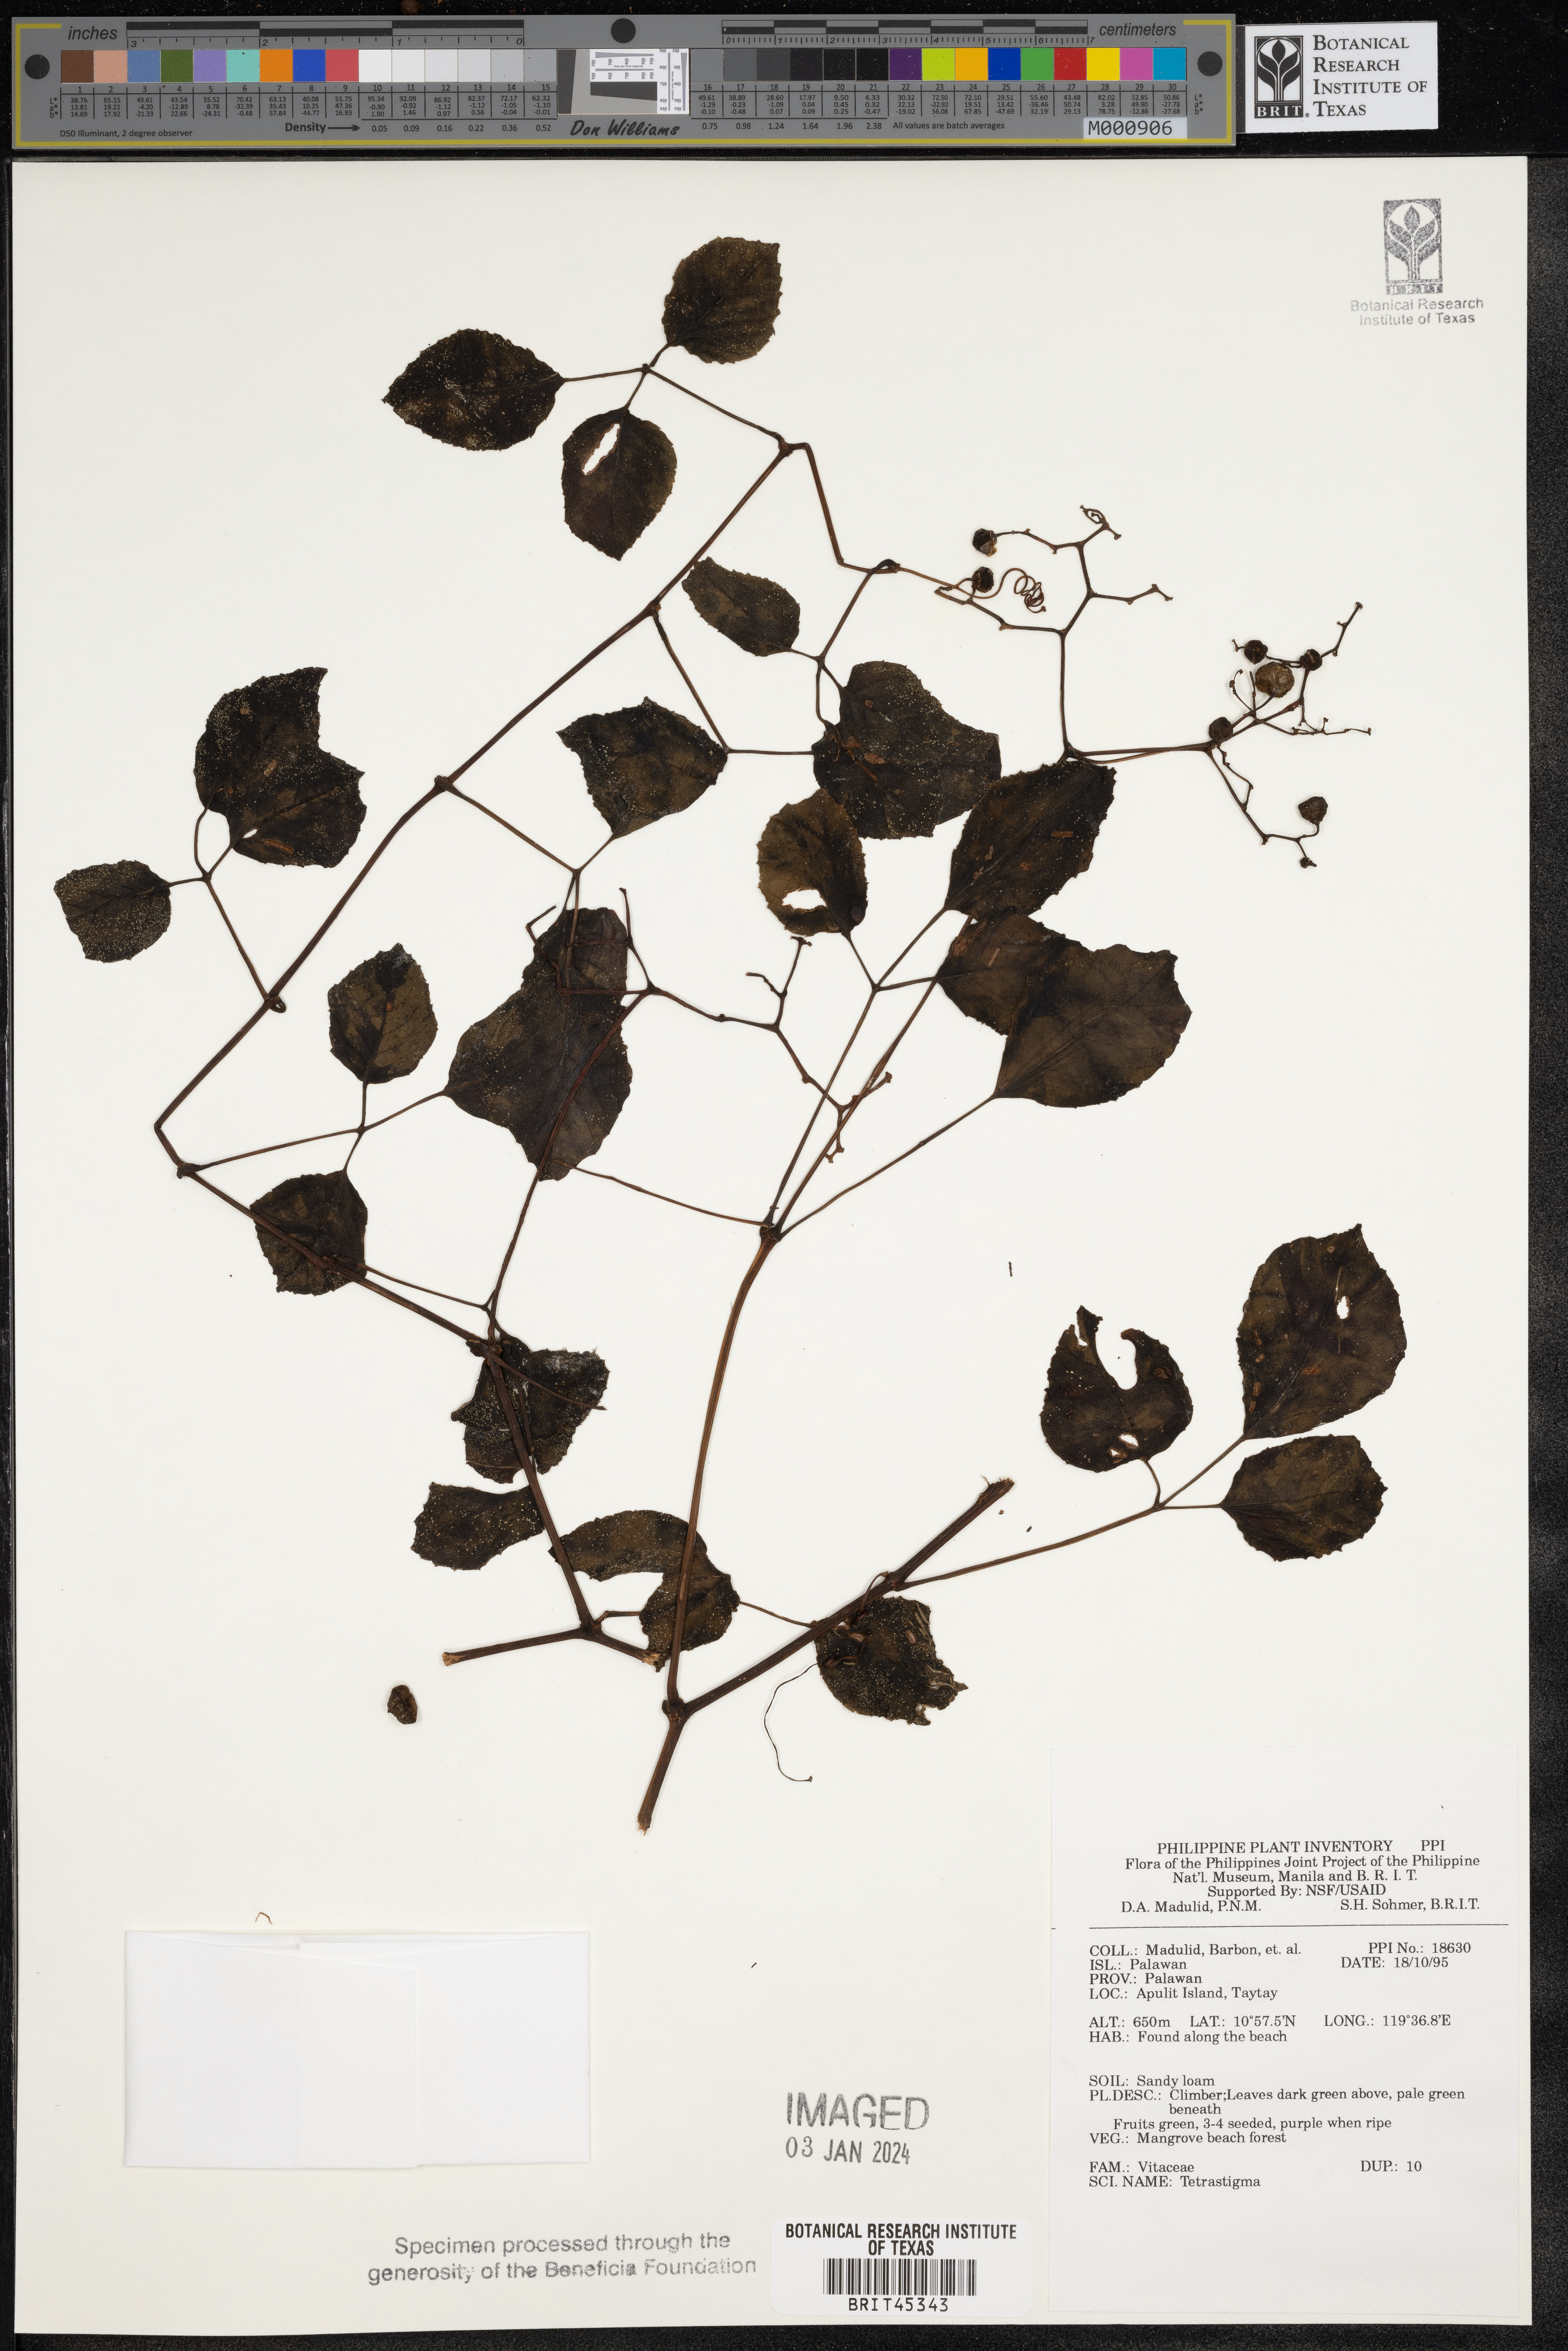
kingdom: Plantae
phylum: Tracheophyta
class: Magnoliopsida
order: Vitales
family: Vitaceae
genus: Tetrastigma
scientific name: Tetrastigma
